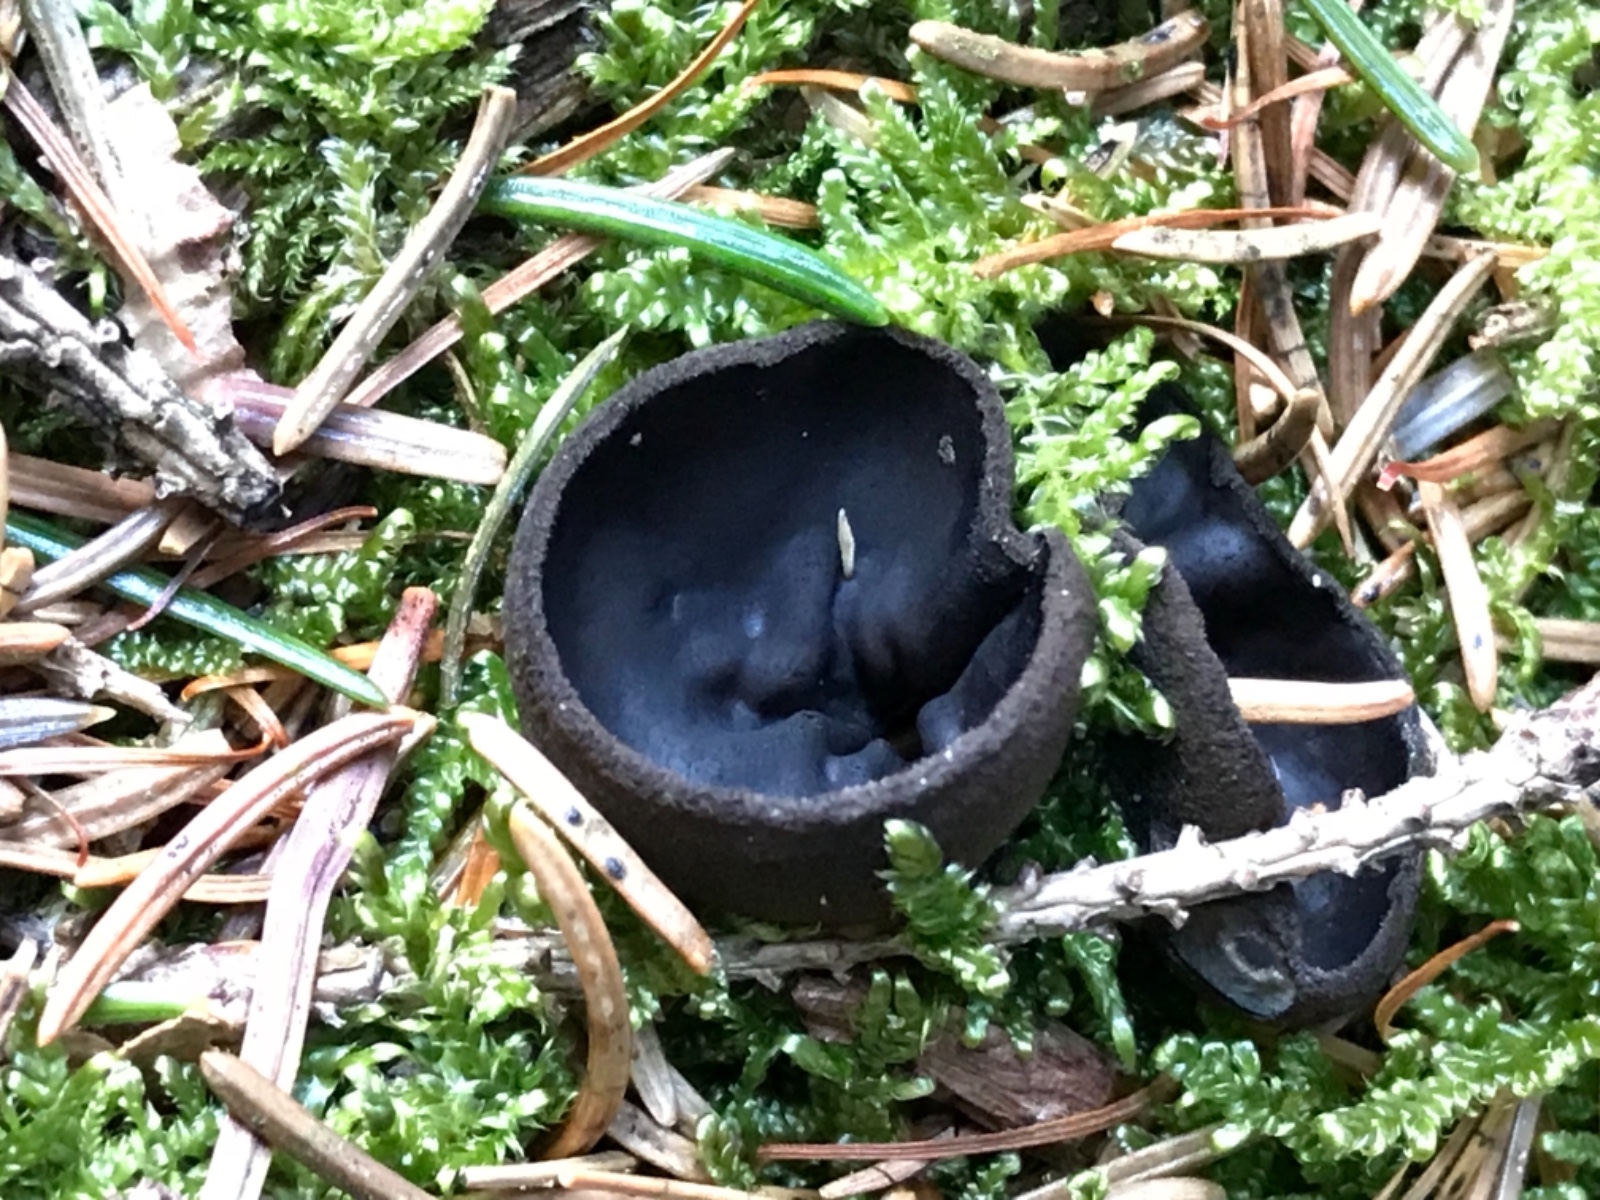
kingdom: Fungi
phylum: Ascomycota
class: Pezizomycetes
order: Pezizales
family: Sarcosomataceae
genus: Pseudoplectania
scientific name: Pseudoplectania nigrella
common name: almindelig sortbæger
